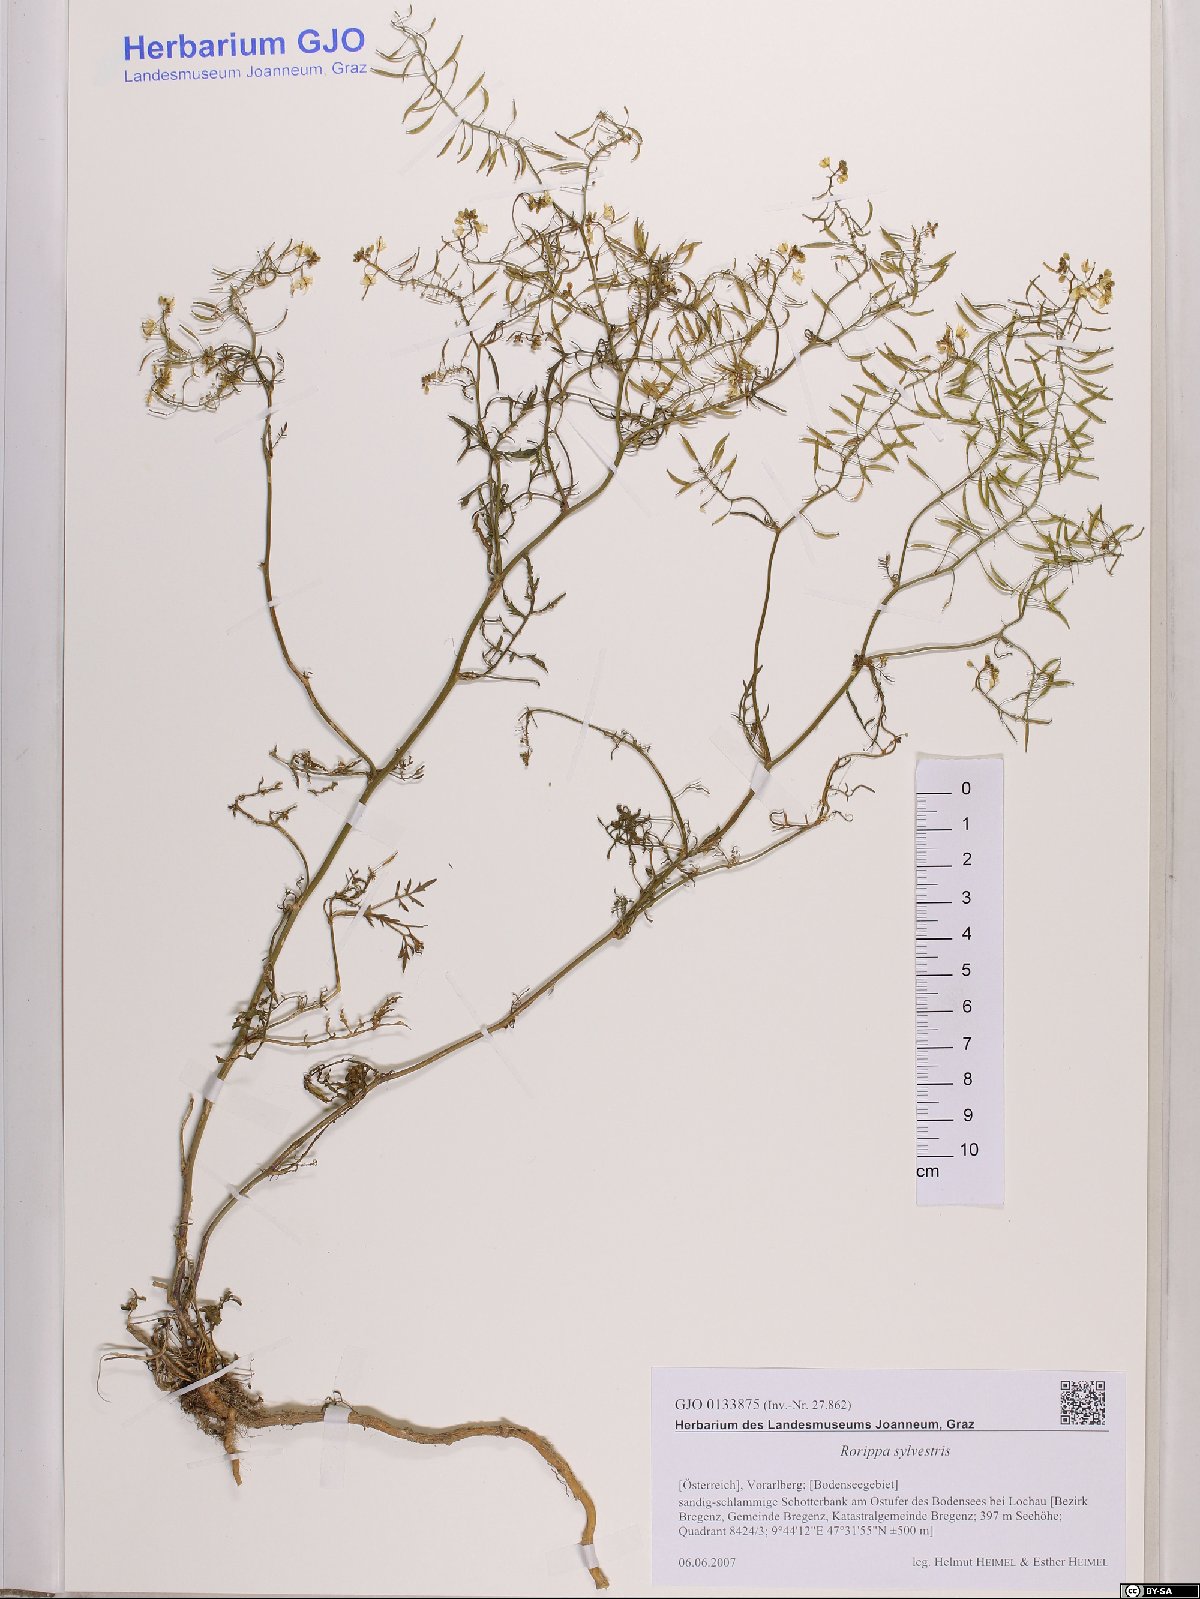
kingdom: Plantae
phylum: Tracheophyta
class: Magnoliopsida
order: Brassicales
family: Brassicaceae
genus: Rorippa
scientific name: Rorippa sylvestris
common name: Creeping yellowcress
